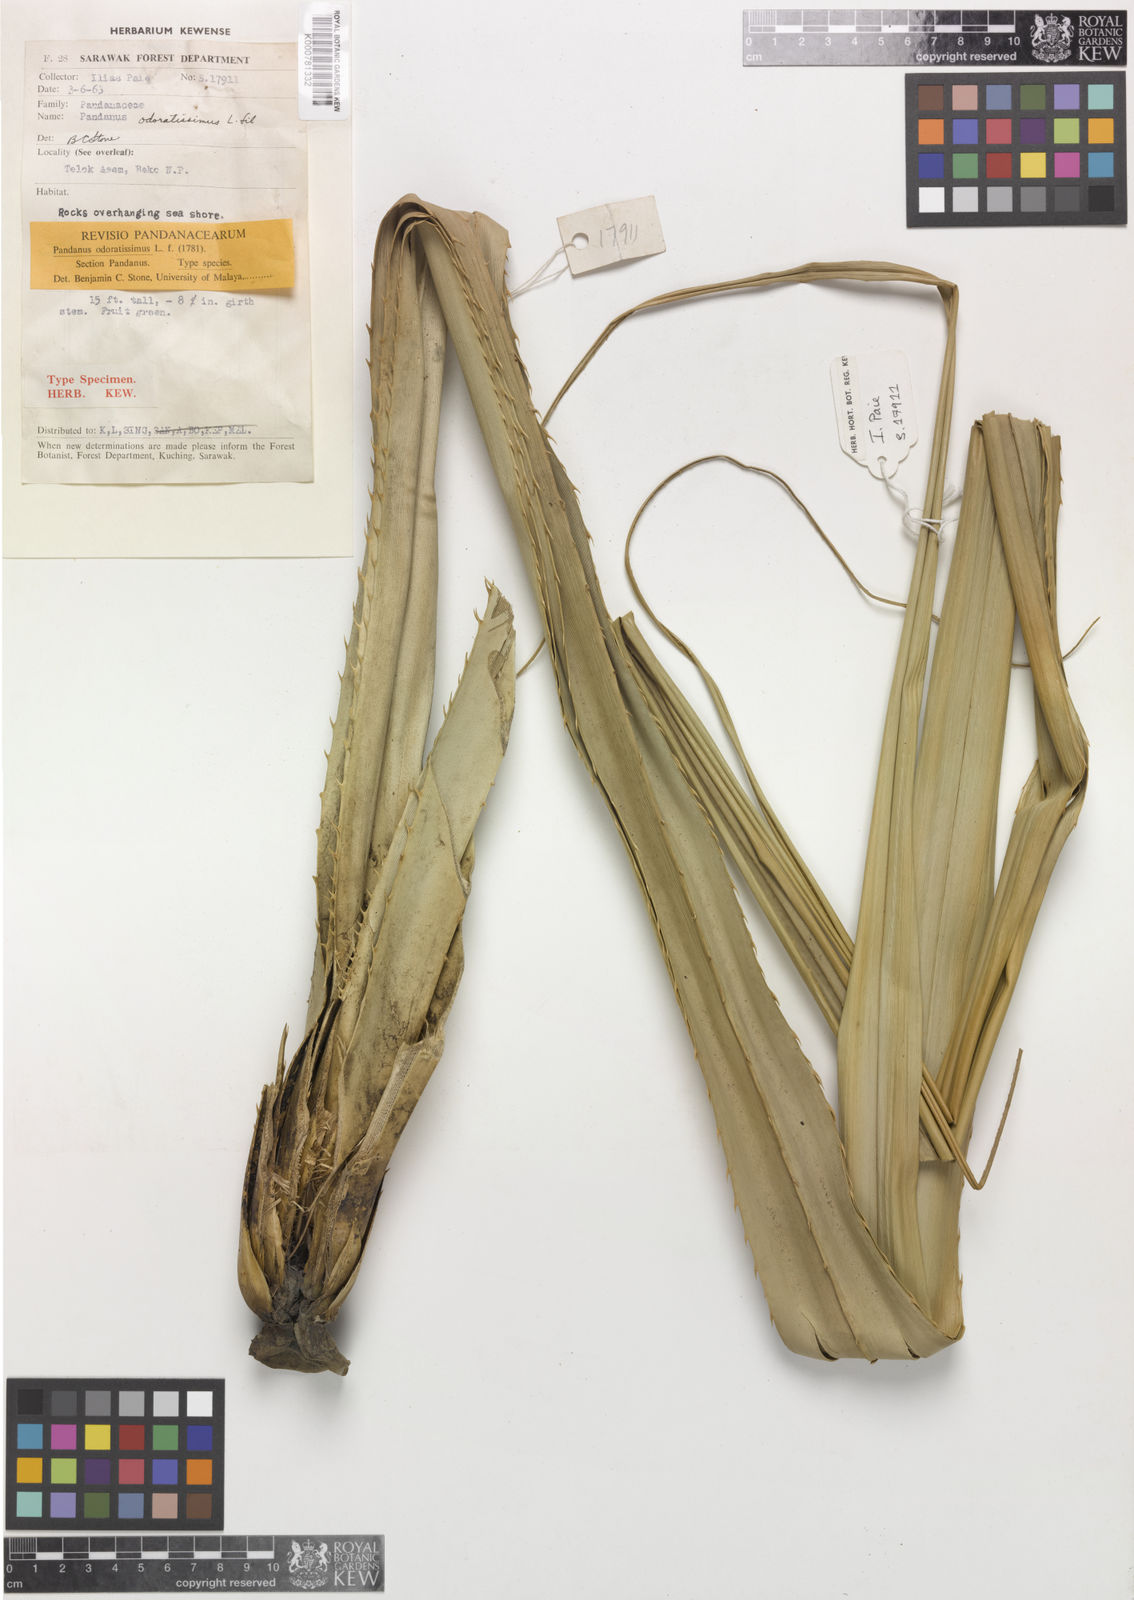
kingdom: Plantae
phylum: Tracheophyta
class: Liliopsida
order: Pandanales
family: Pandanaceae
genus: Pandanus
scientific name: Pandanus odorifer
